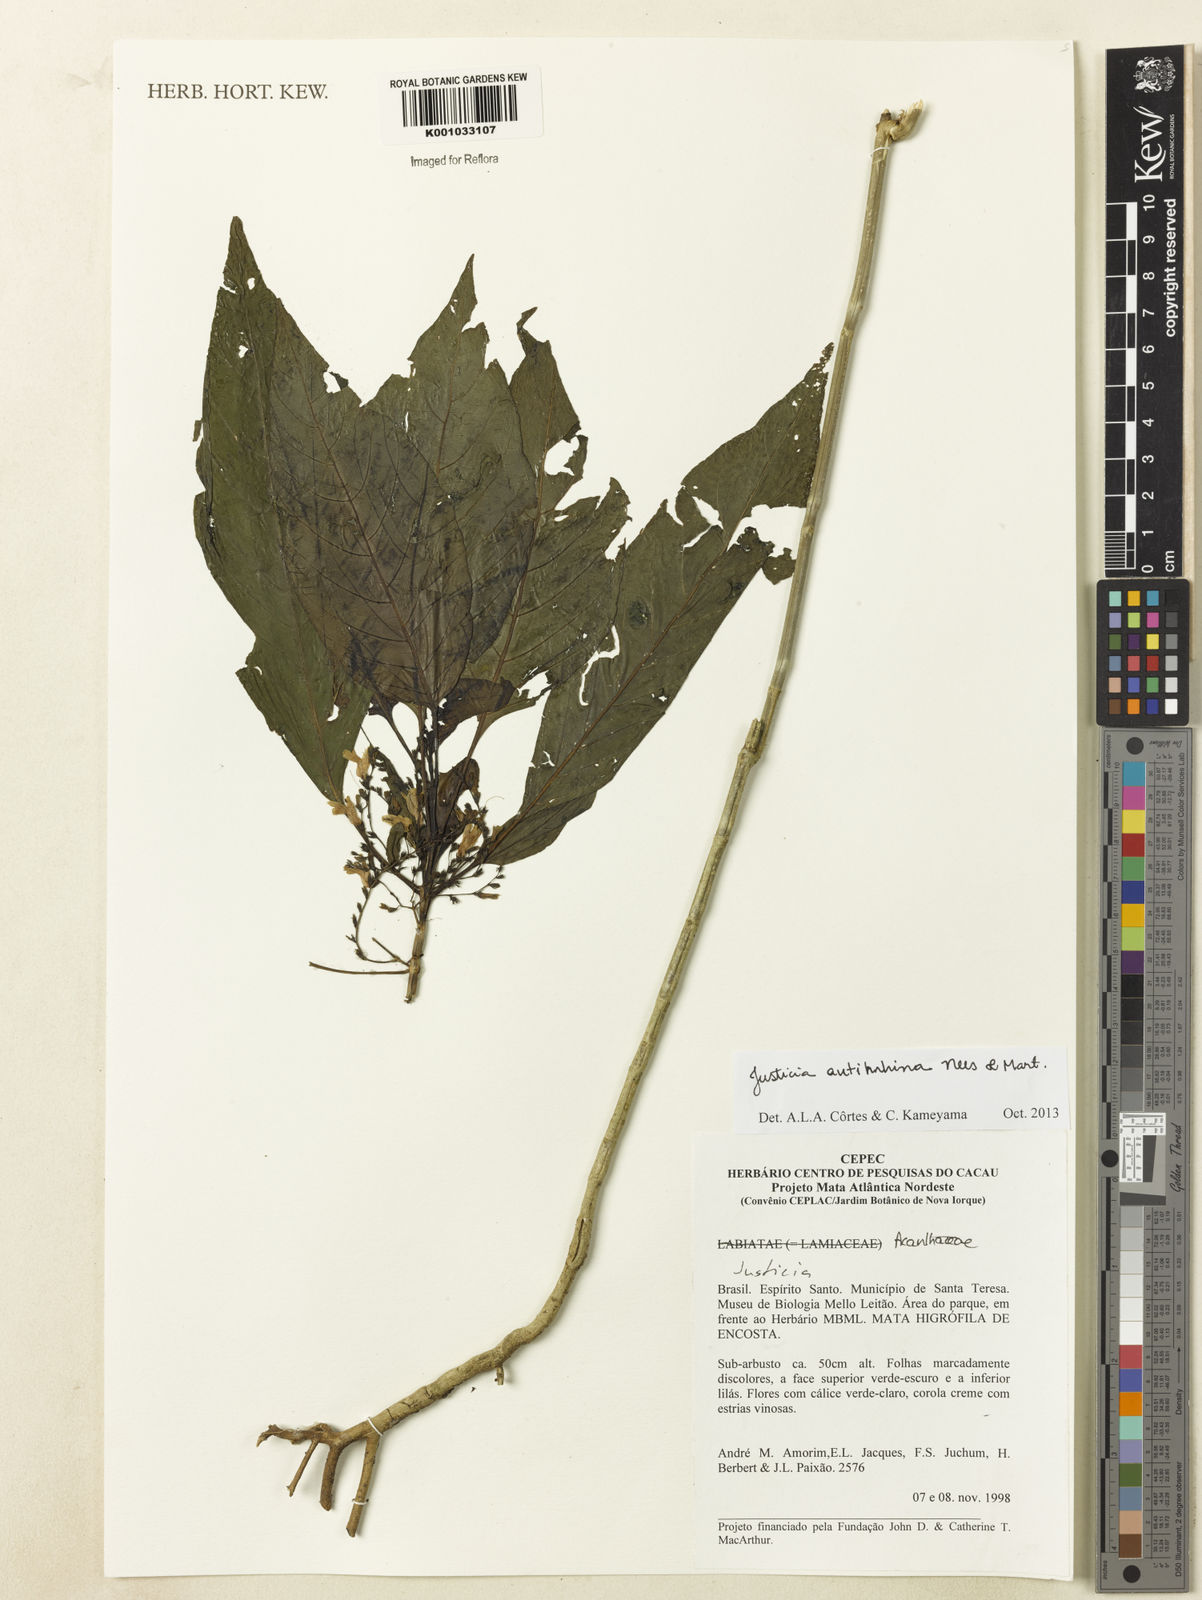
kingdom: Plantae
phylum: Tracheophyta
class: Magnoliopsida
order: Lamiales
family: Acanthaceae
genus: Justicia
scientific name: Justicia antirrhina
